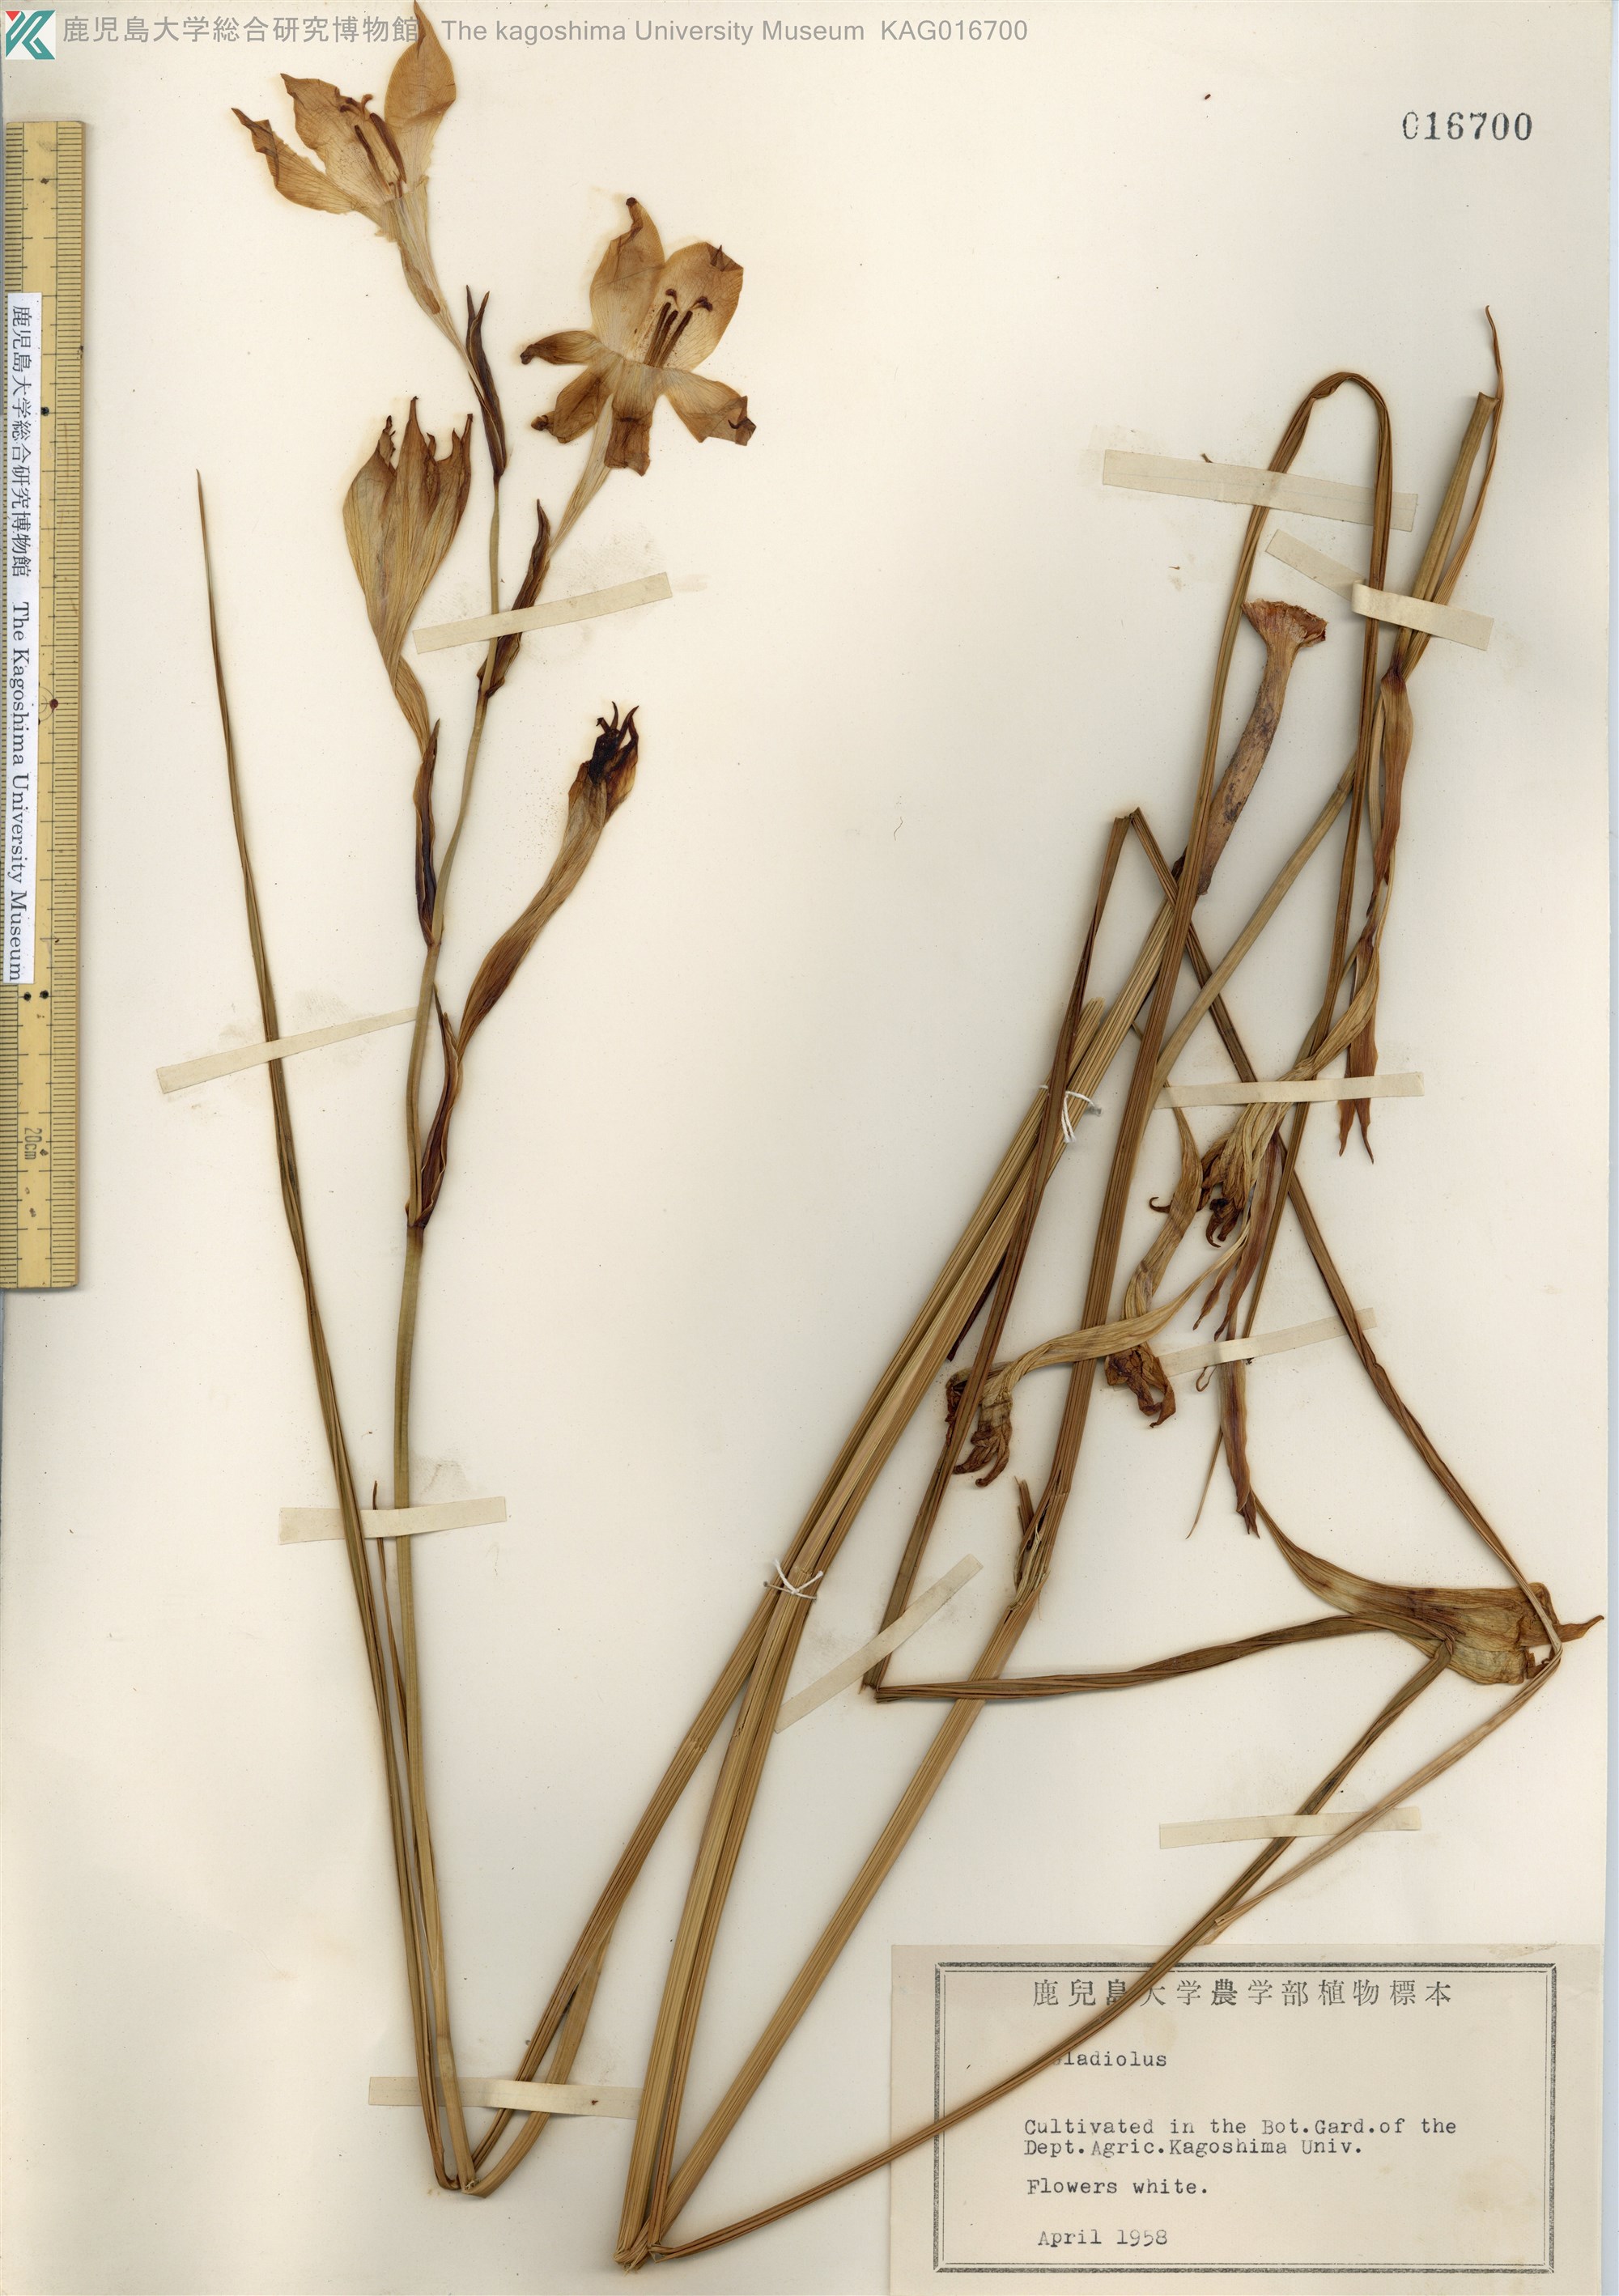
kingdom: Plantae
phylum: Tracheophyta
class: Liliopsida
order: Asparagales
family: Iridaceae
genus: Gladiolus
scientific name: Gladiolus colvillei
